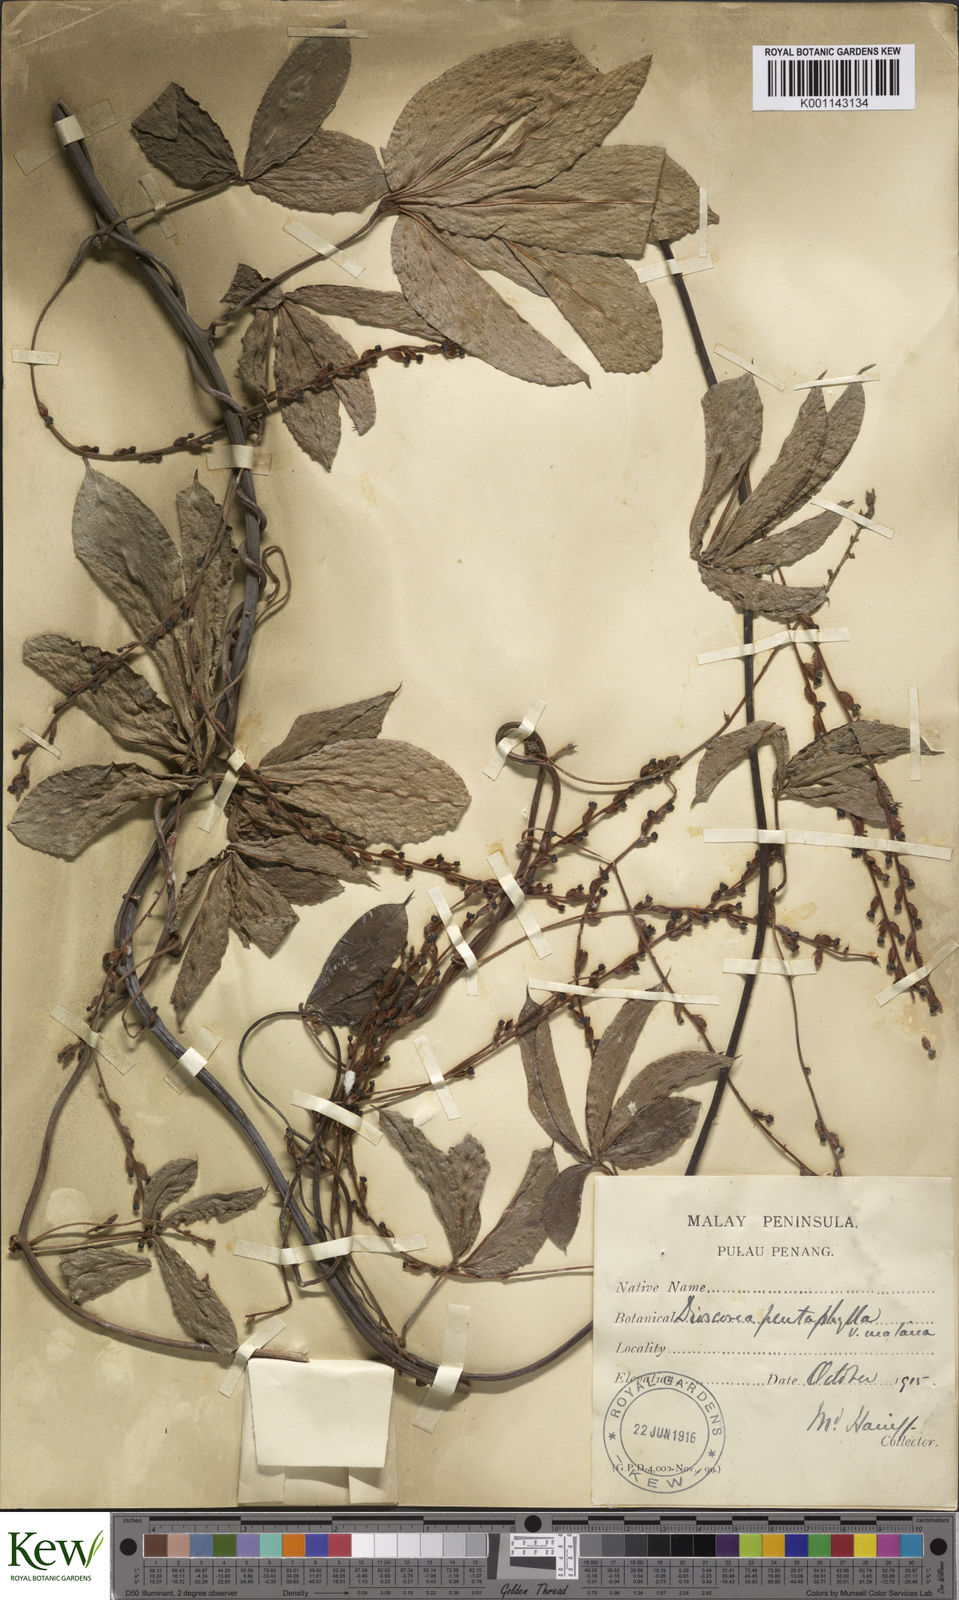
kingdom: Plantae
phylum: Tracheophyta
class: Liliopsida
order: Dioscoreales
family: Dioscoreaceae
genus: Dioscorea
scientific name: Dioscorea pentaphylla
